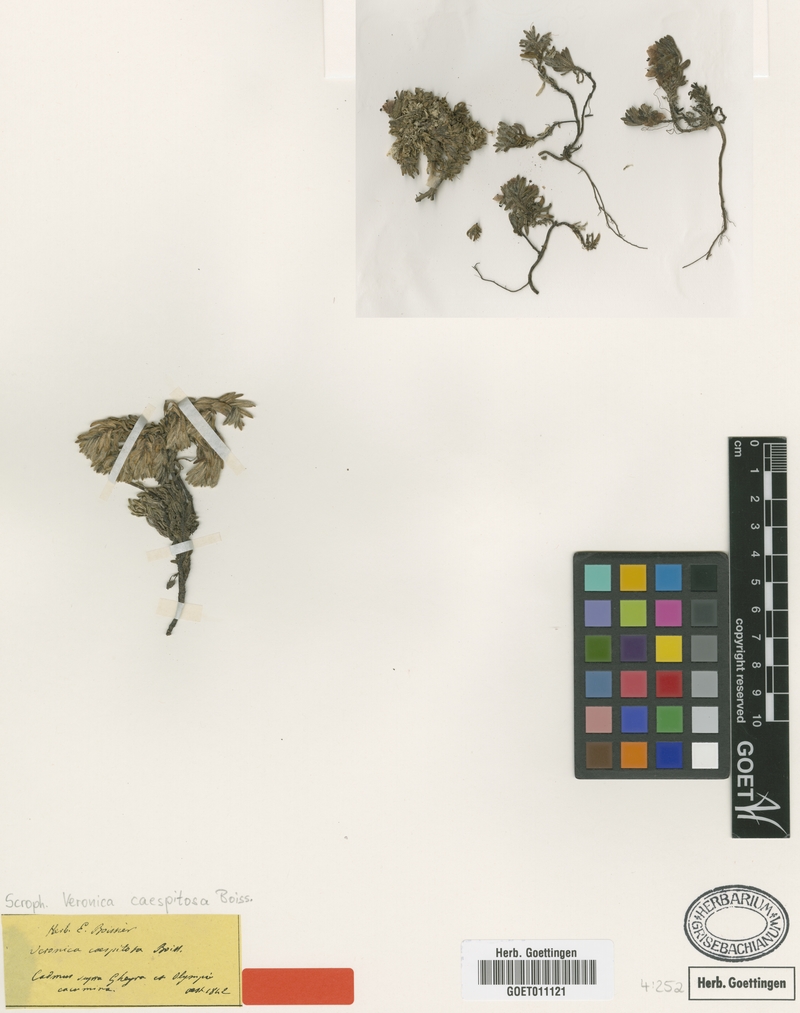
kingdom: Plantae
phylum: Tracheophyta
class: Magnoliopsida
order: Lamiales
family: Plantaginaceae
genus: Veronica
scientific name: Veronica caespitosa
